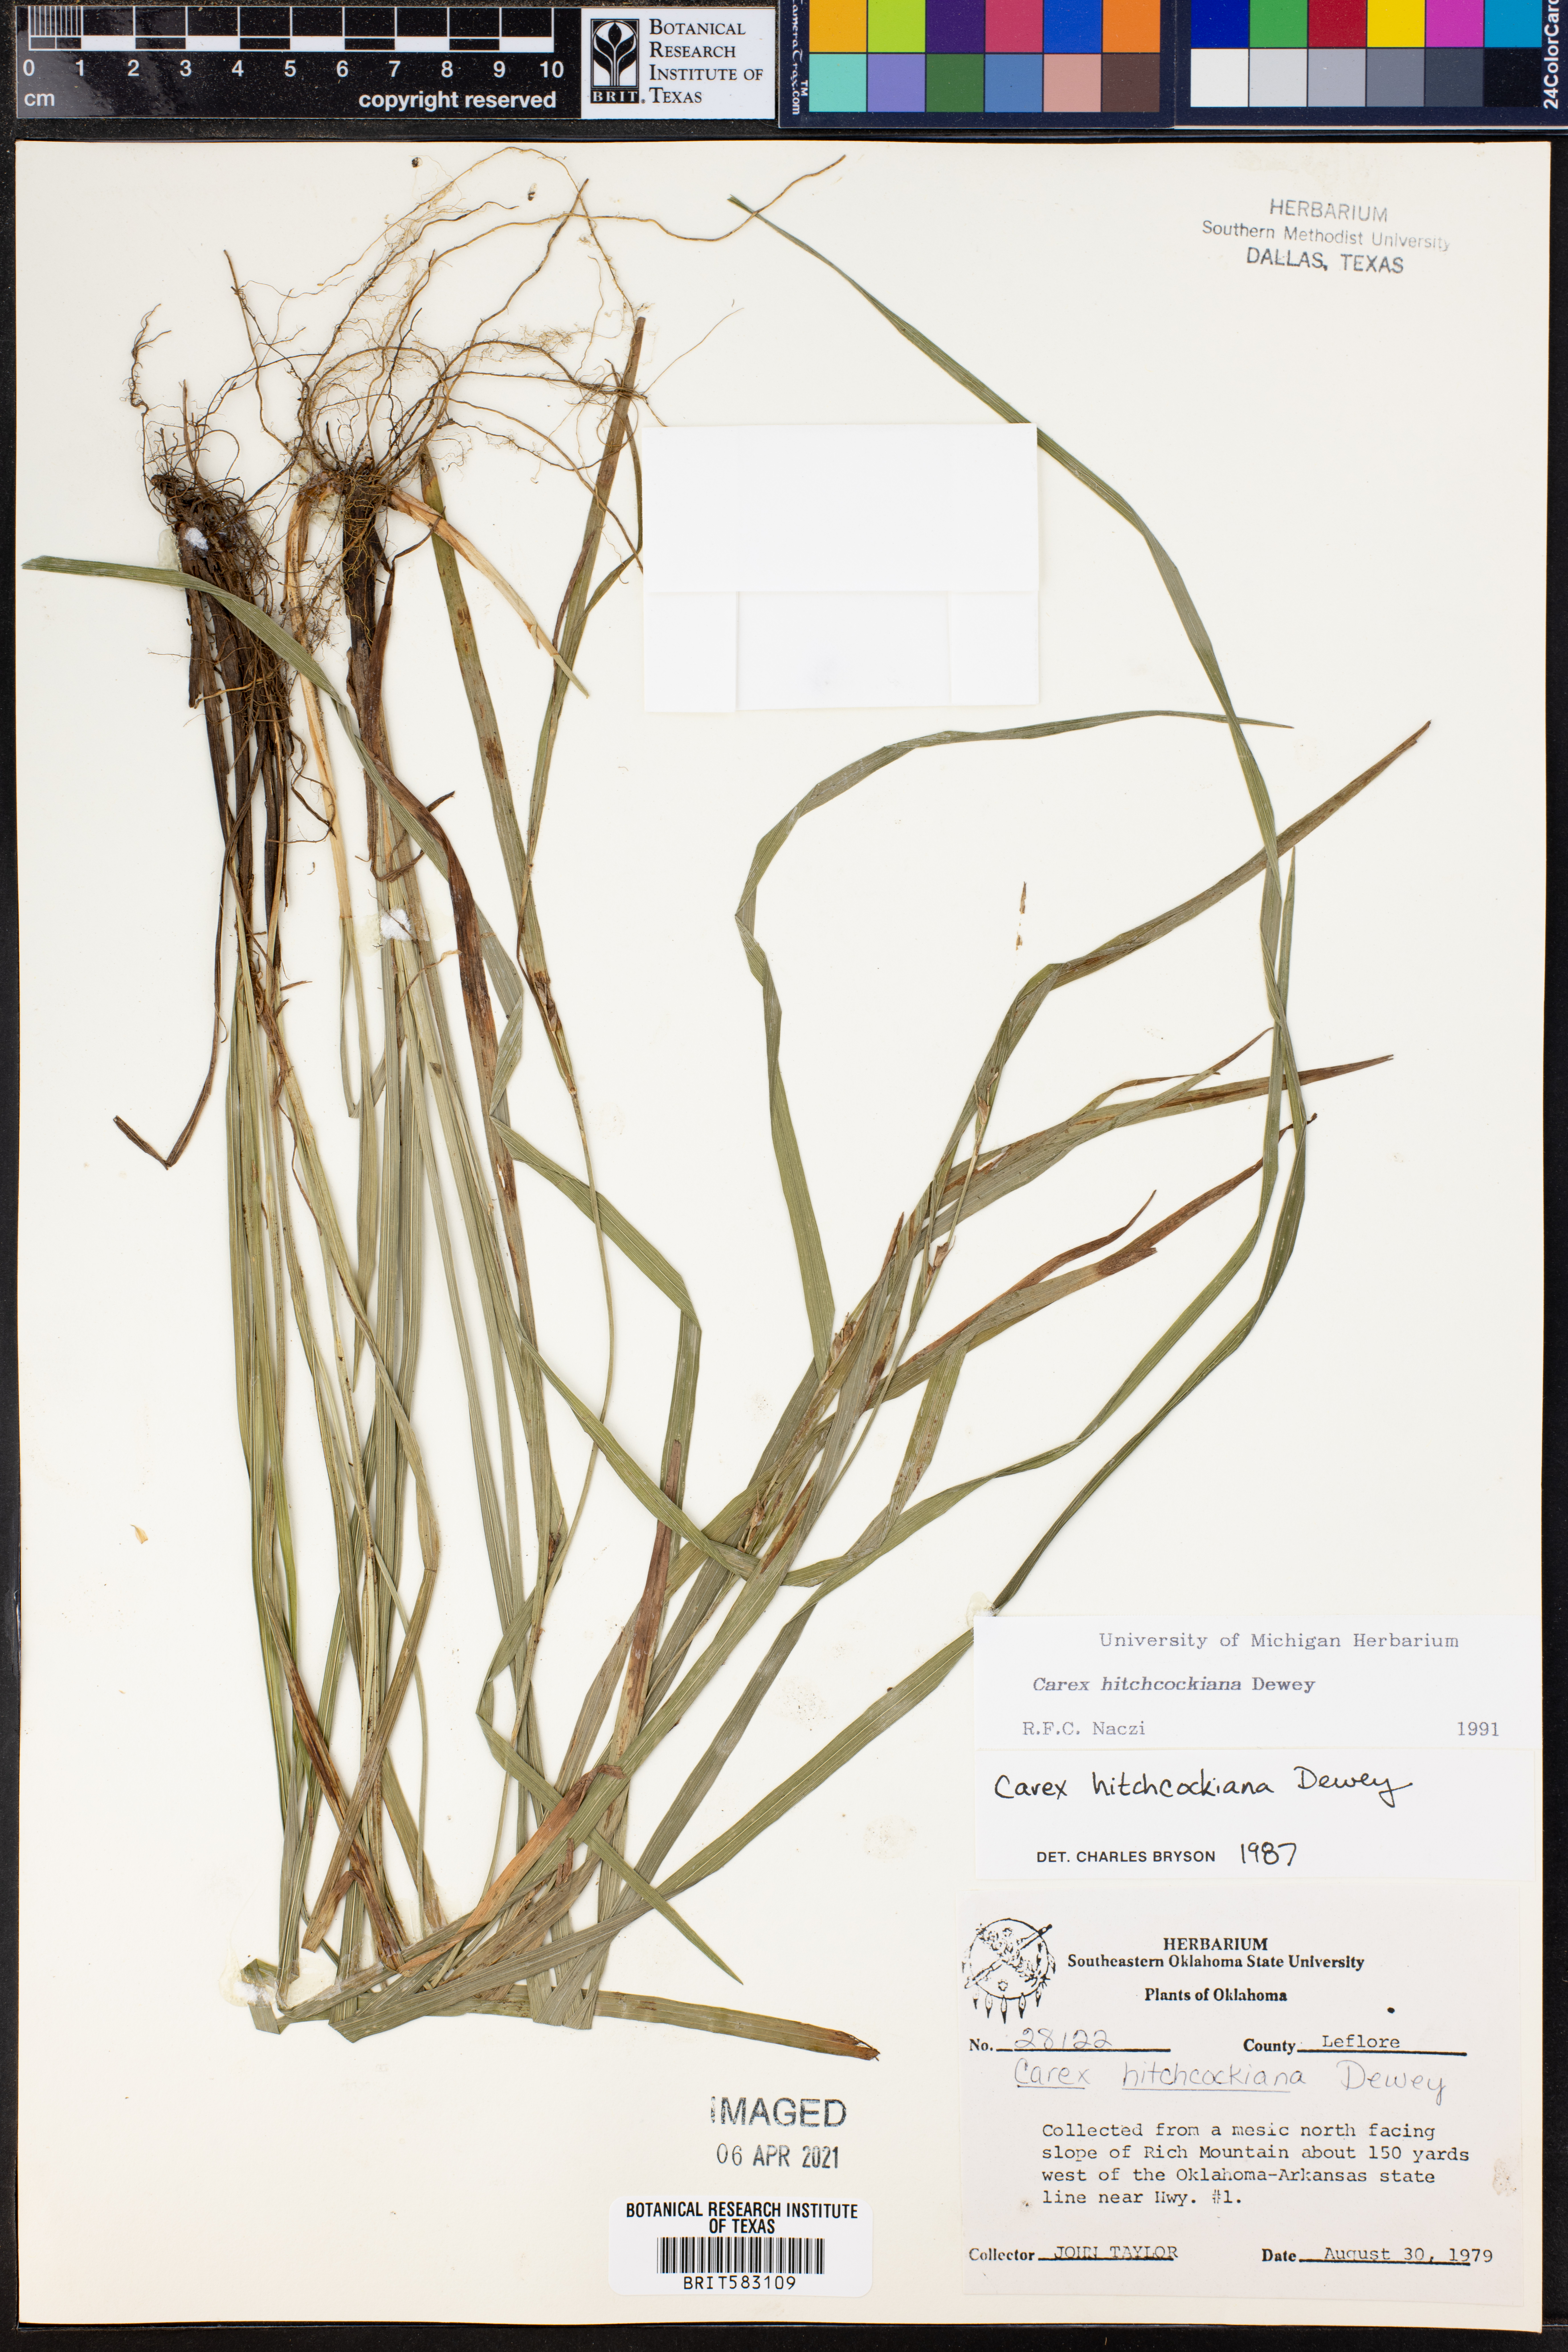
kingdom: Plantae
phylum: Tracheophyta
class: Liliopsida
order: Poales
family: Cyperaceae
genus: Carex
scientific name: Carex hitchcockiana
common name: Hairy grey sedge
